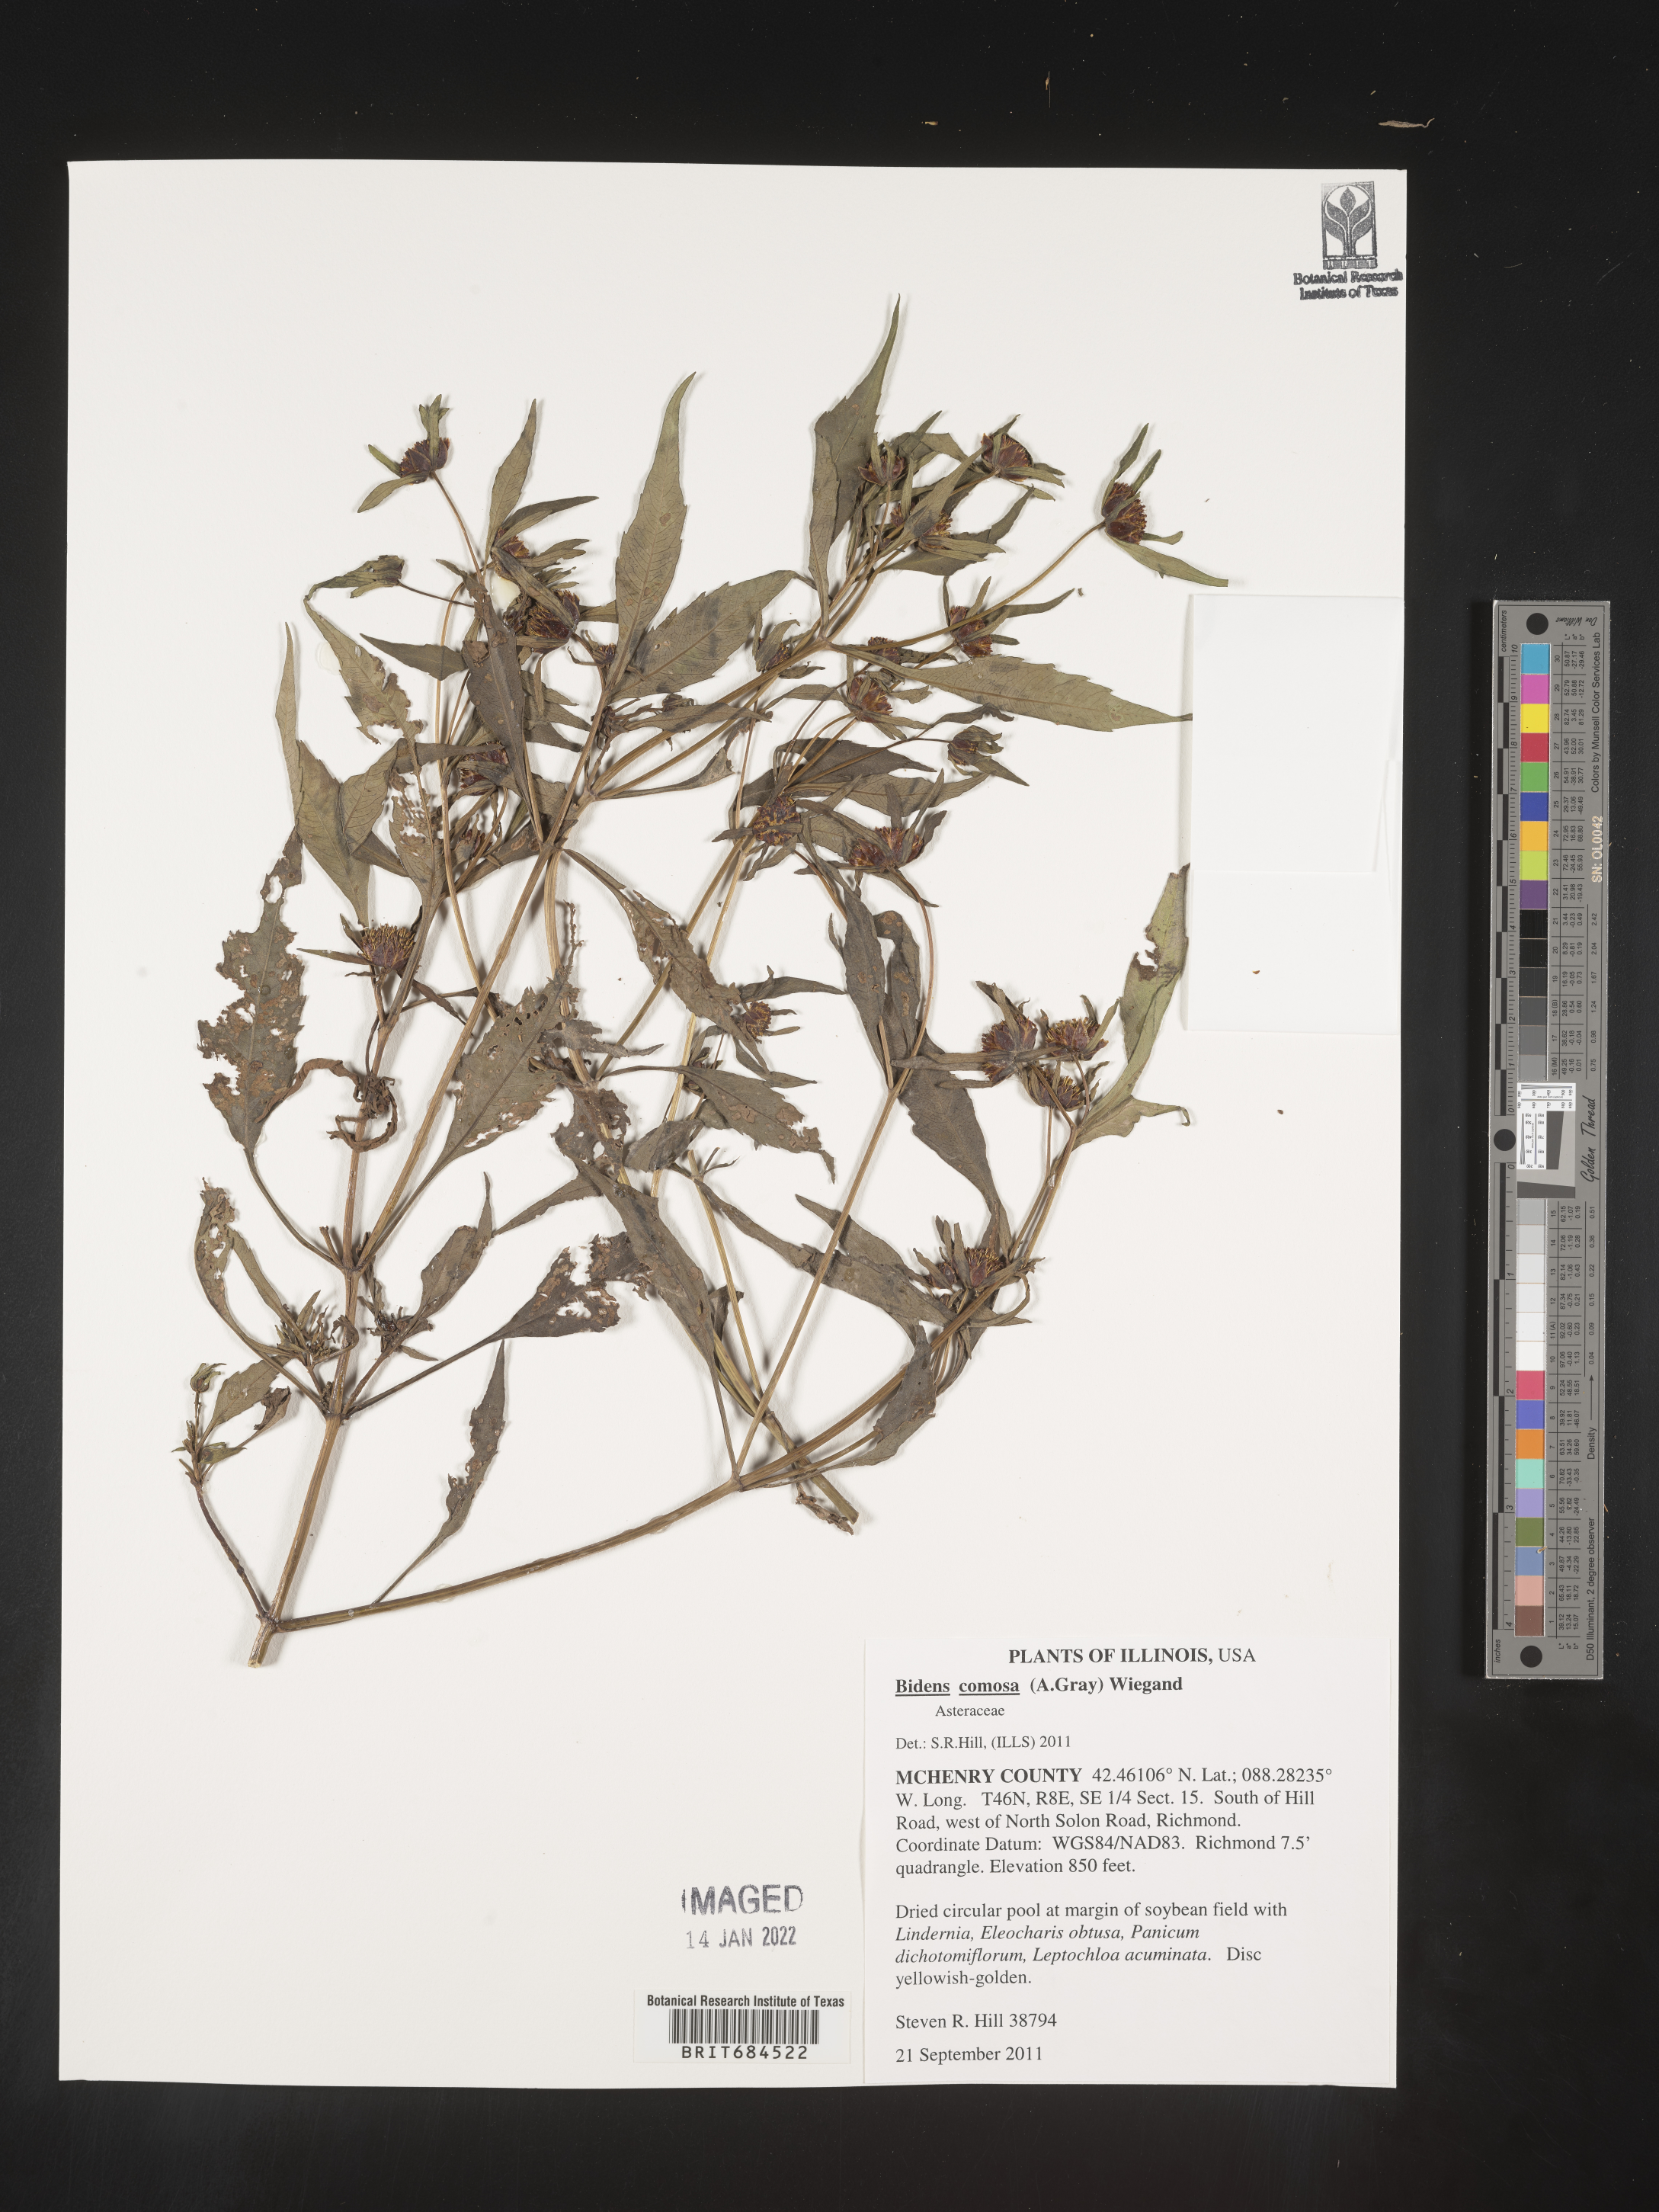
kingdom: Plantae
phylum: Tracheophyta
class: Magnoliopsida
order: Asterales
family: Asteraceae
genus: Bidens
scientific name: Bidens frondosa
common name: Beggarticks
